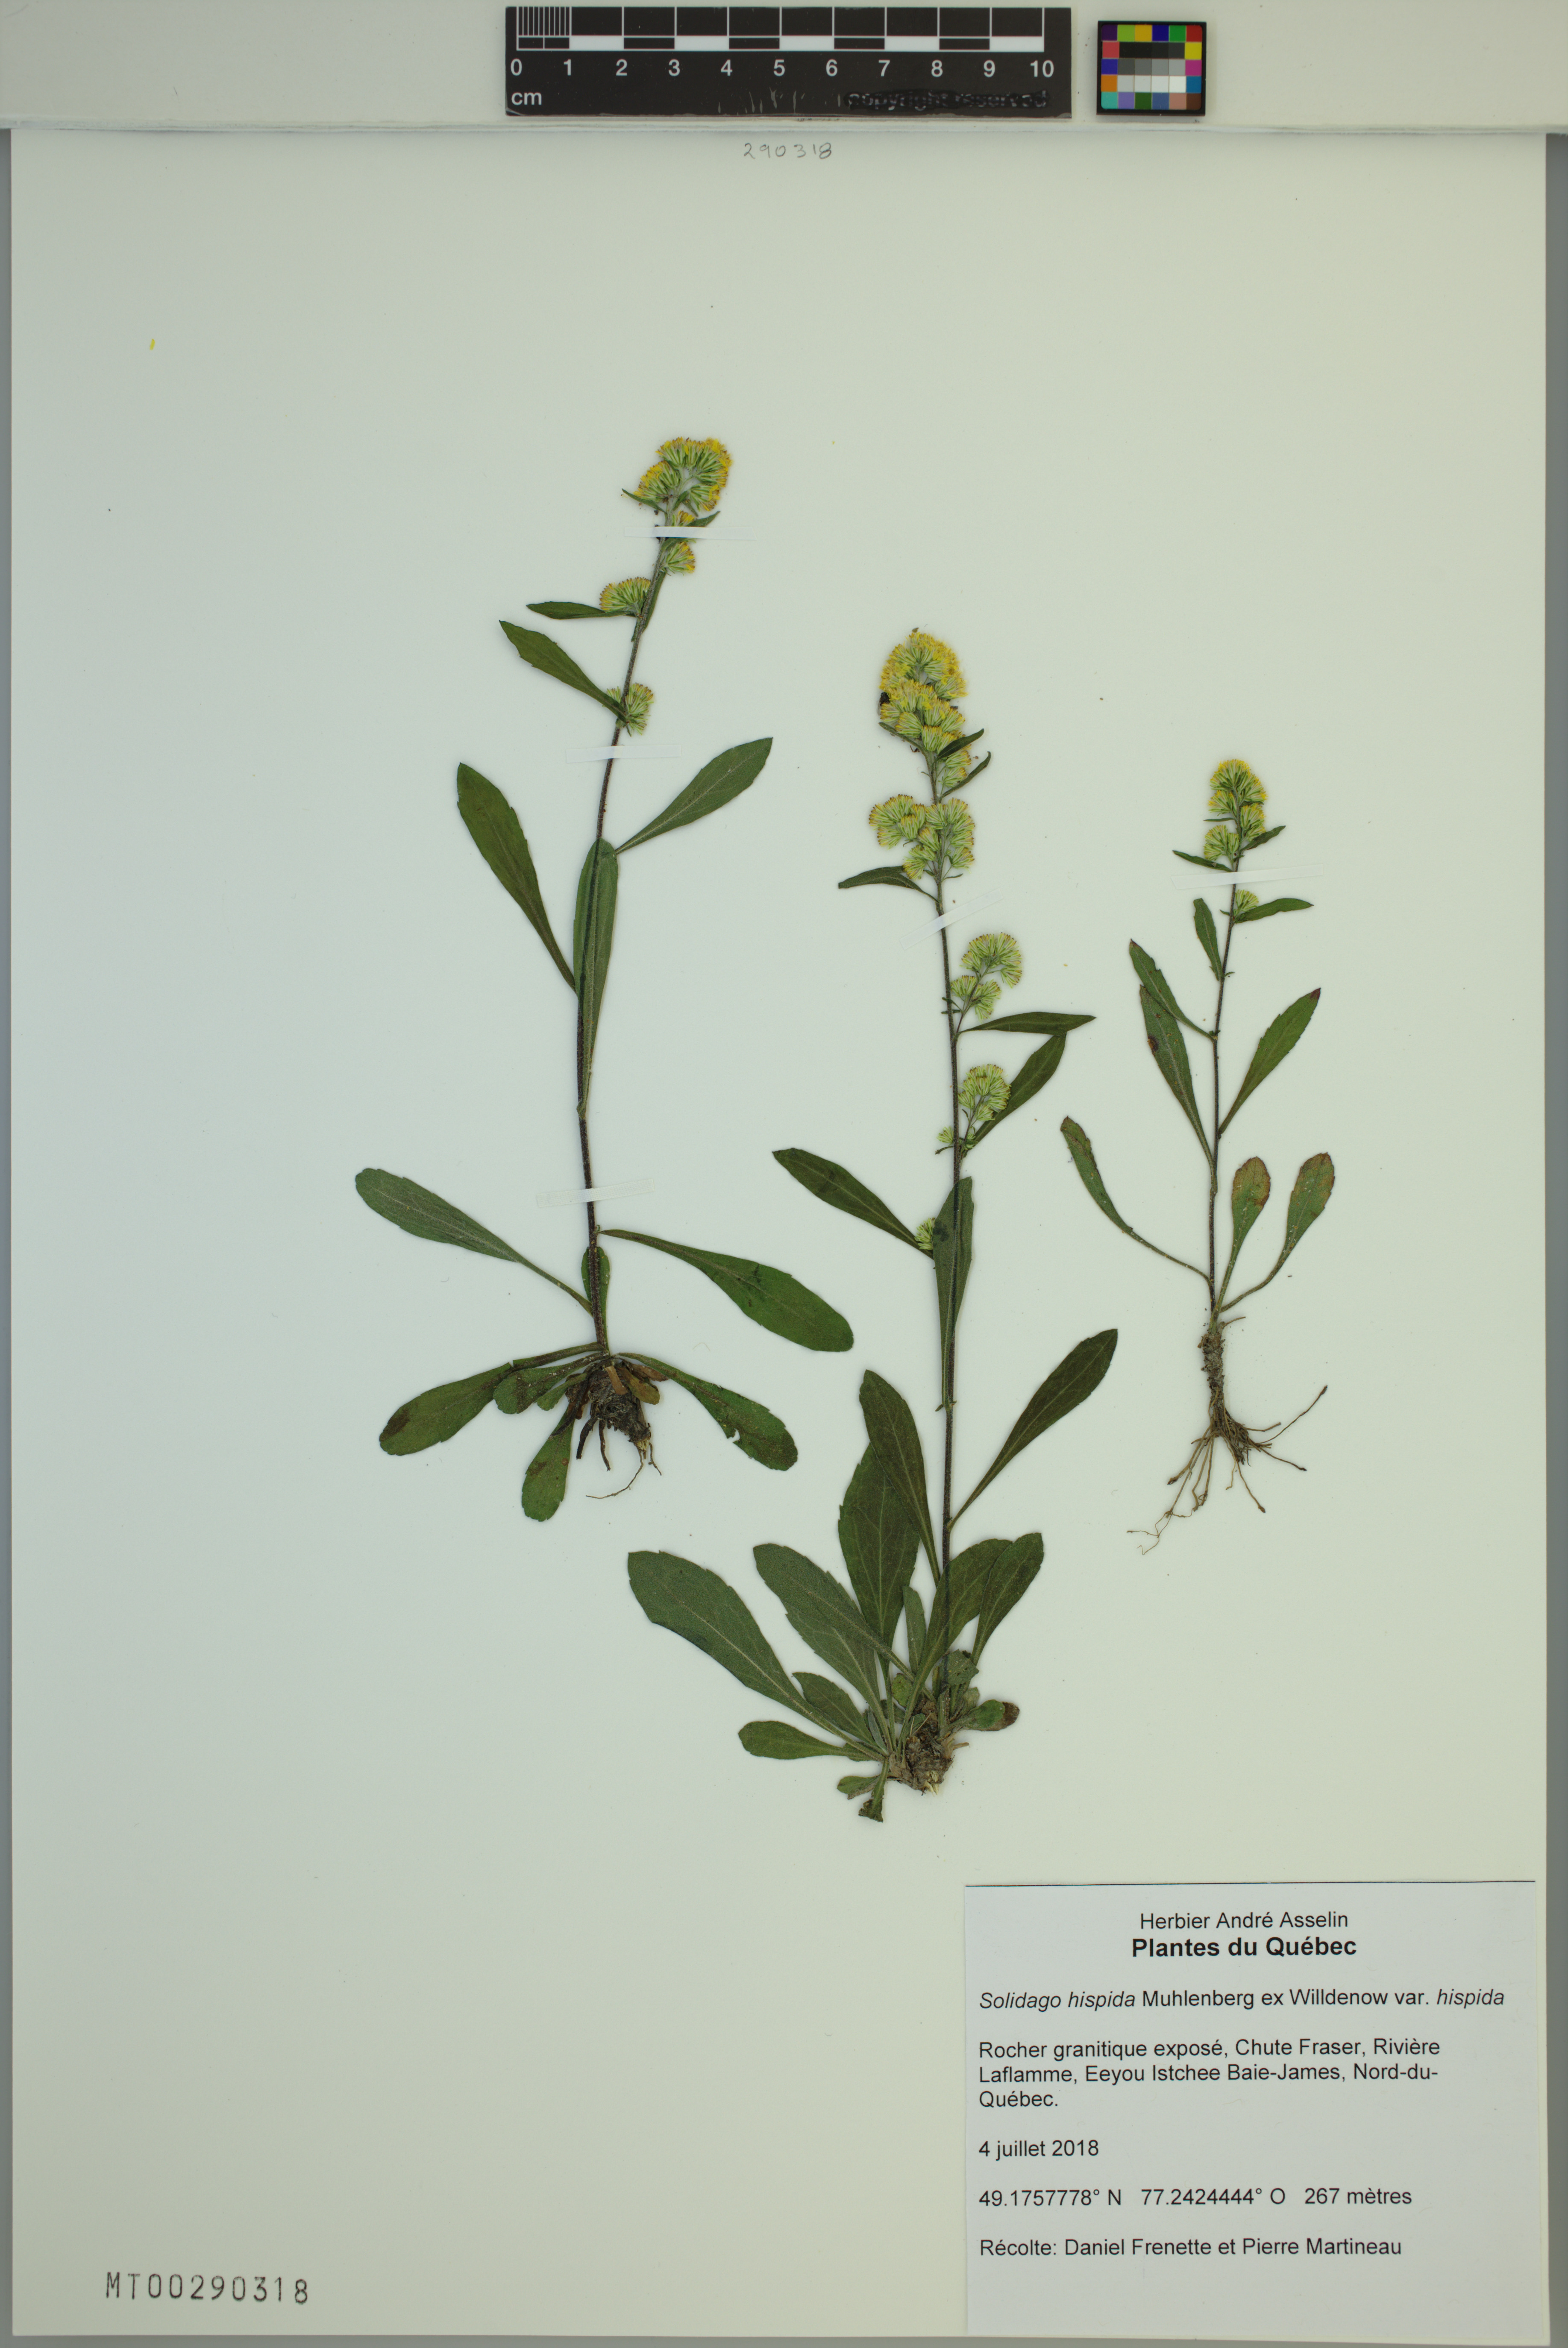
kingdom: Plantae
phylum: Tracheophyta
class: Magnoliopsida
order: Asterales
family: Asteraceae
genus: Solidago
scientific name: Solidago hispida
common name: Hairy goldenrod
